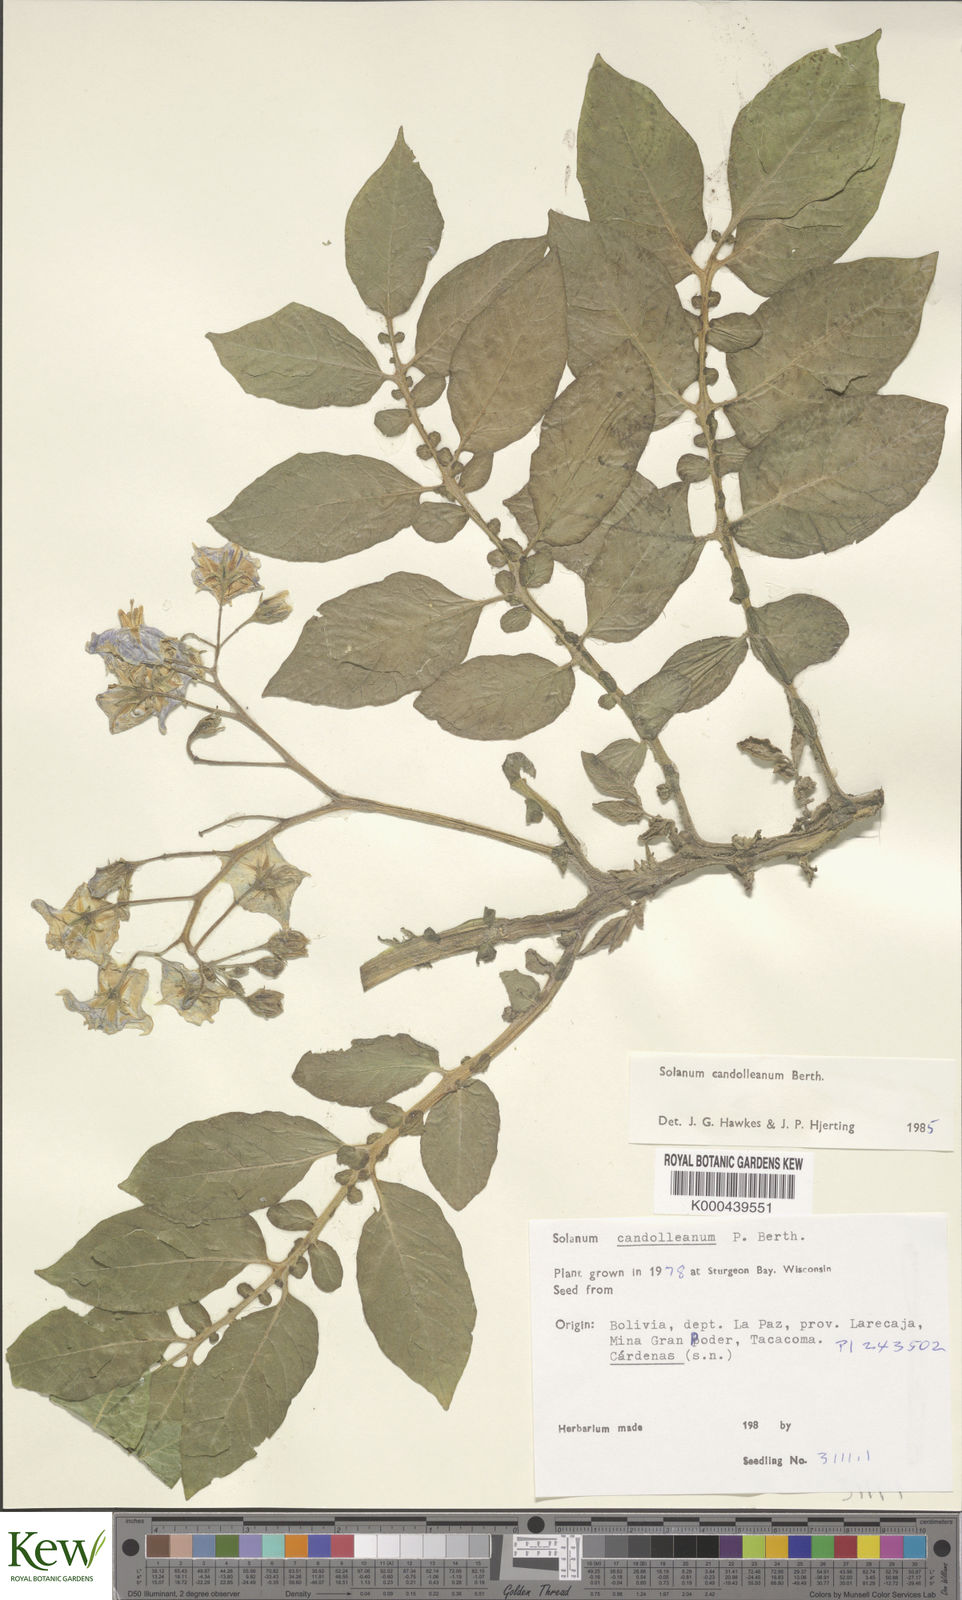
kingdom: Plantae
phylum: Tracheophyta
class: Magnoliopsida
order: Solanales
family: Solanaceae
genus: Solanum
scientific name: Solanum candolleanum
